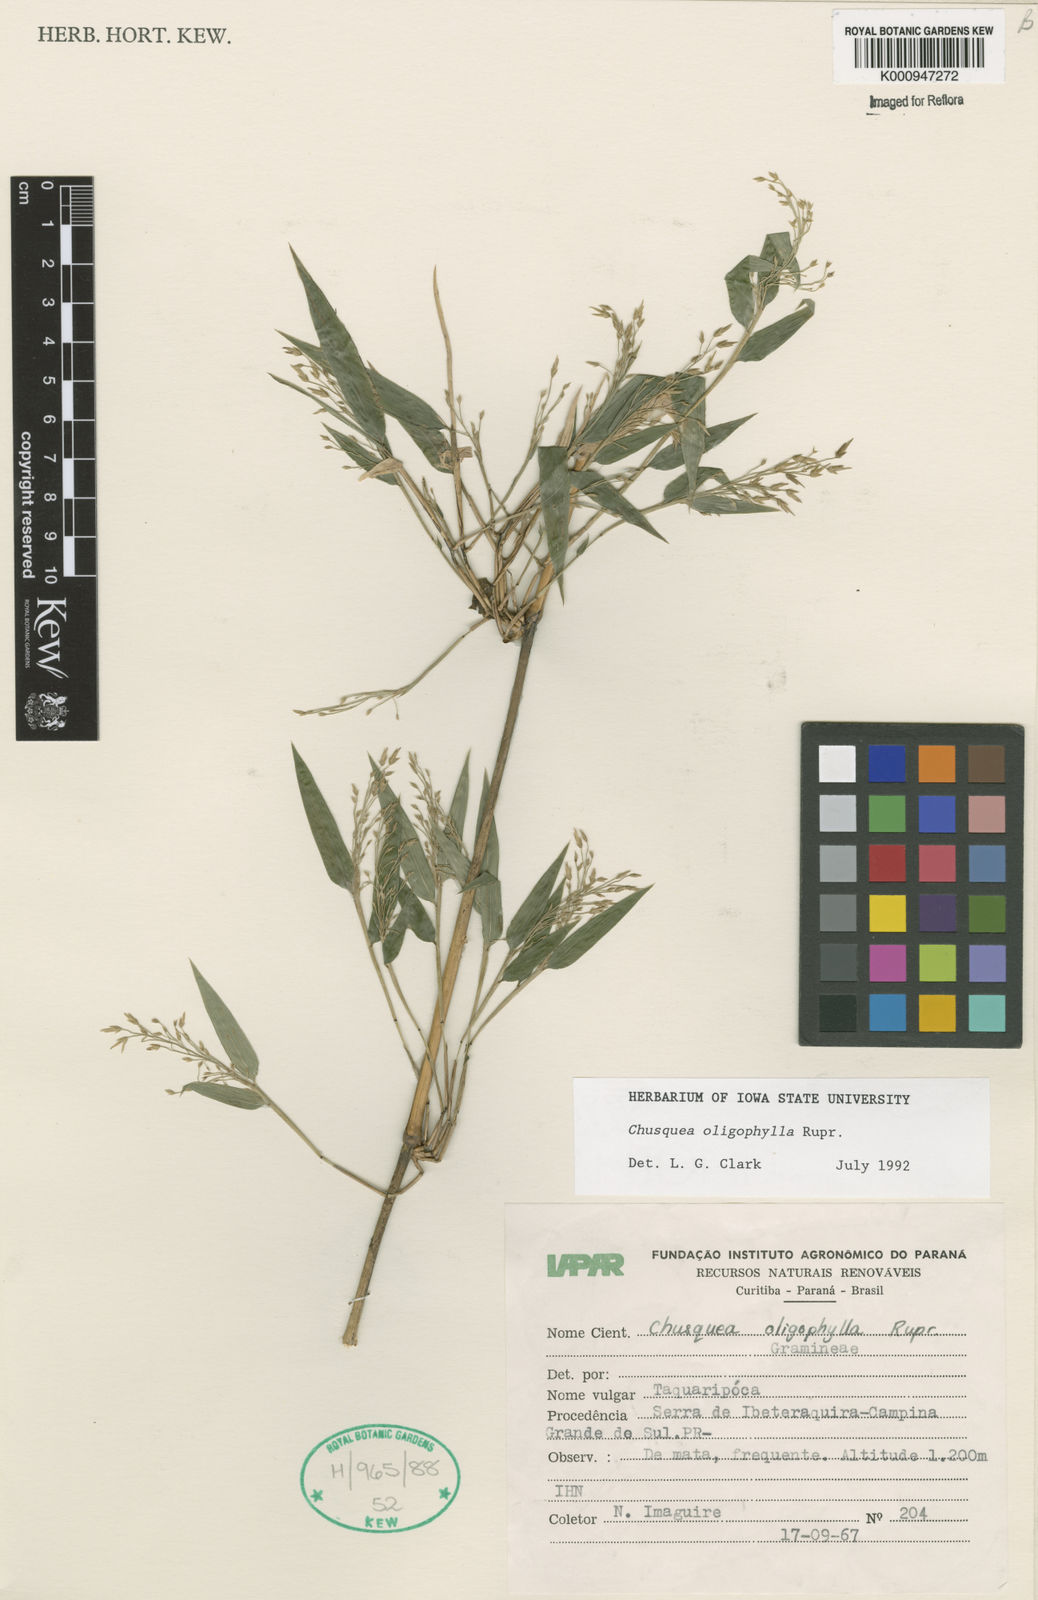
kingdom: Plantae
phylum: Tracheophyta
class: Liliopsida
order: Poales
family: Poaceae
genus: Chusquea
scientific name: Chusquea oligophylla
